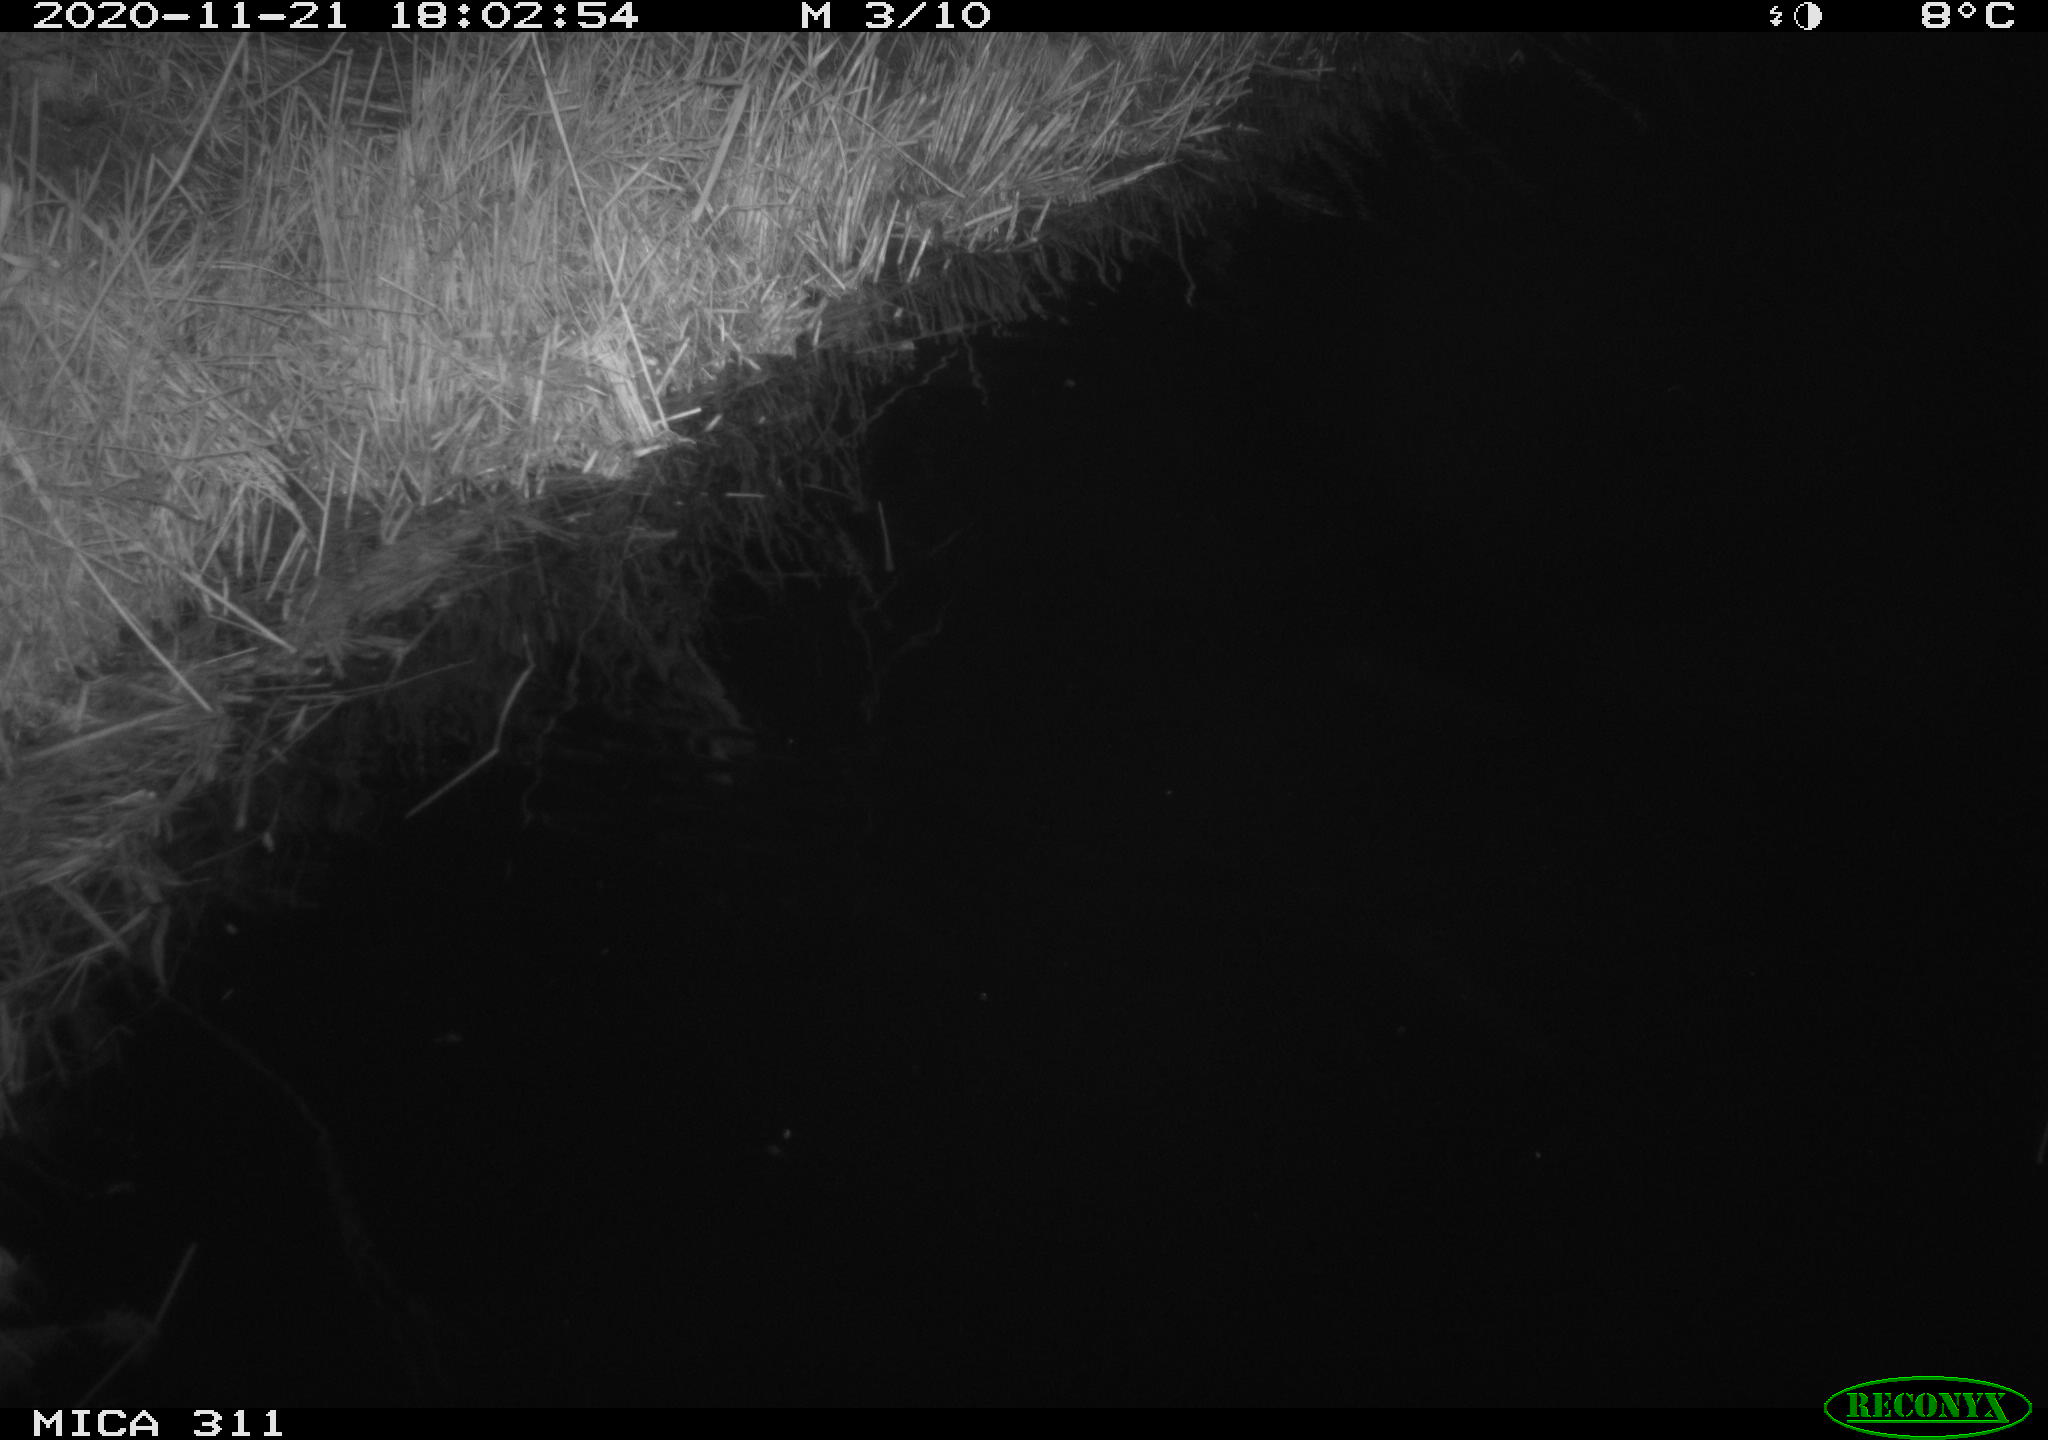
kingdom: Animalia
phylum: Chordata
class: Mammalia
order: Rodentia
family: Muridae
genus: Rattus
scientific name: Rattus norvegicus
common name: Brown rat
